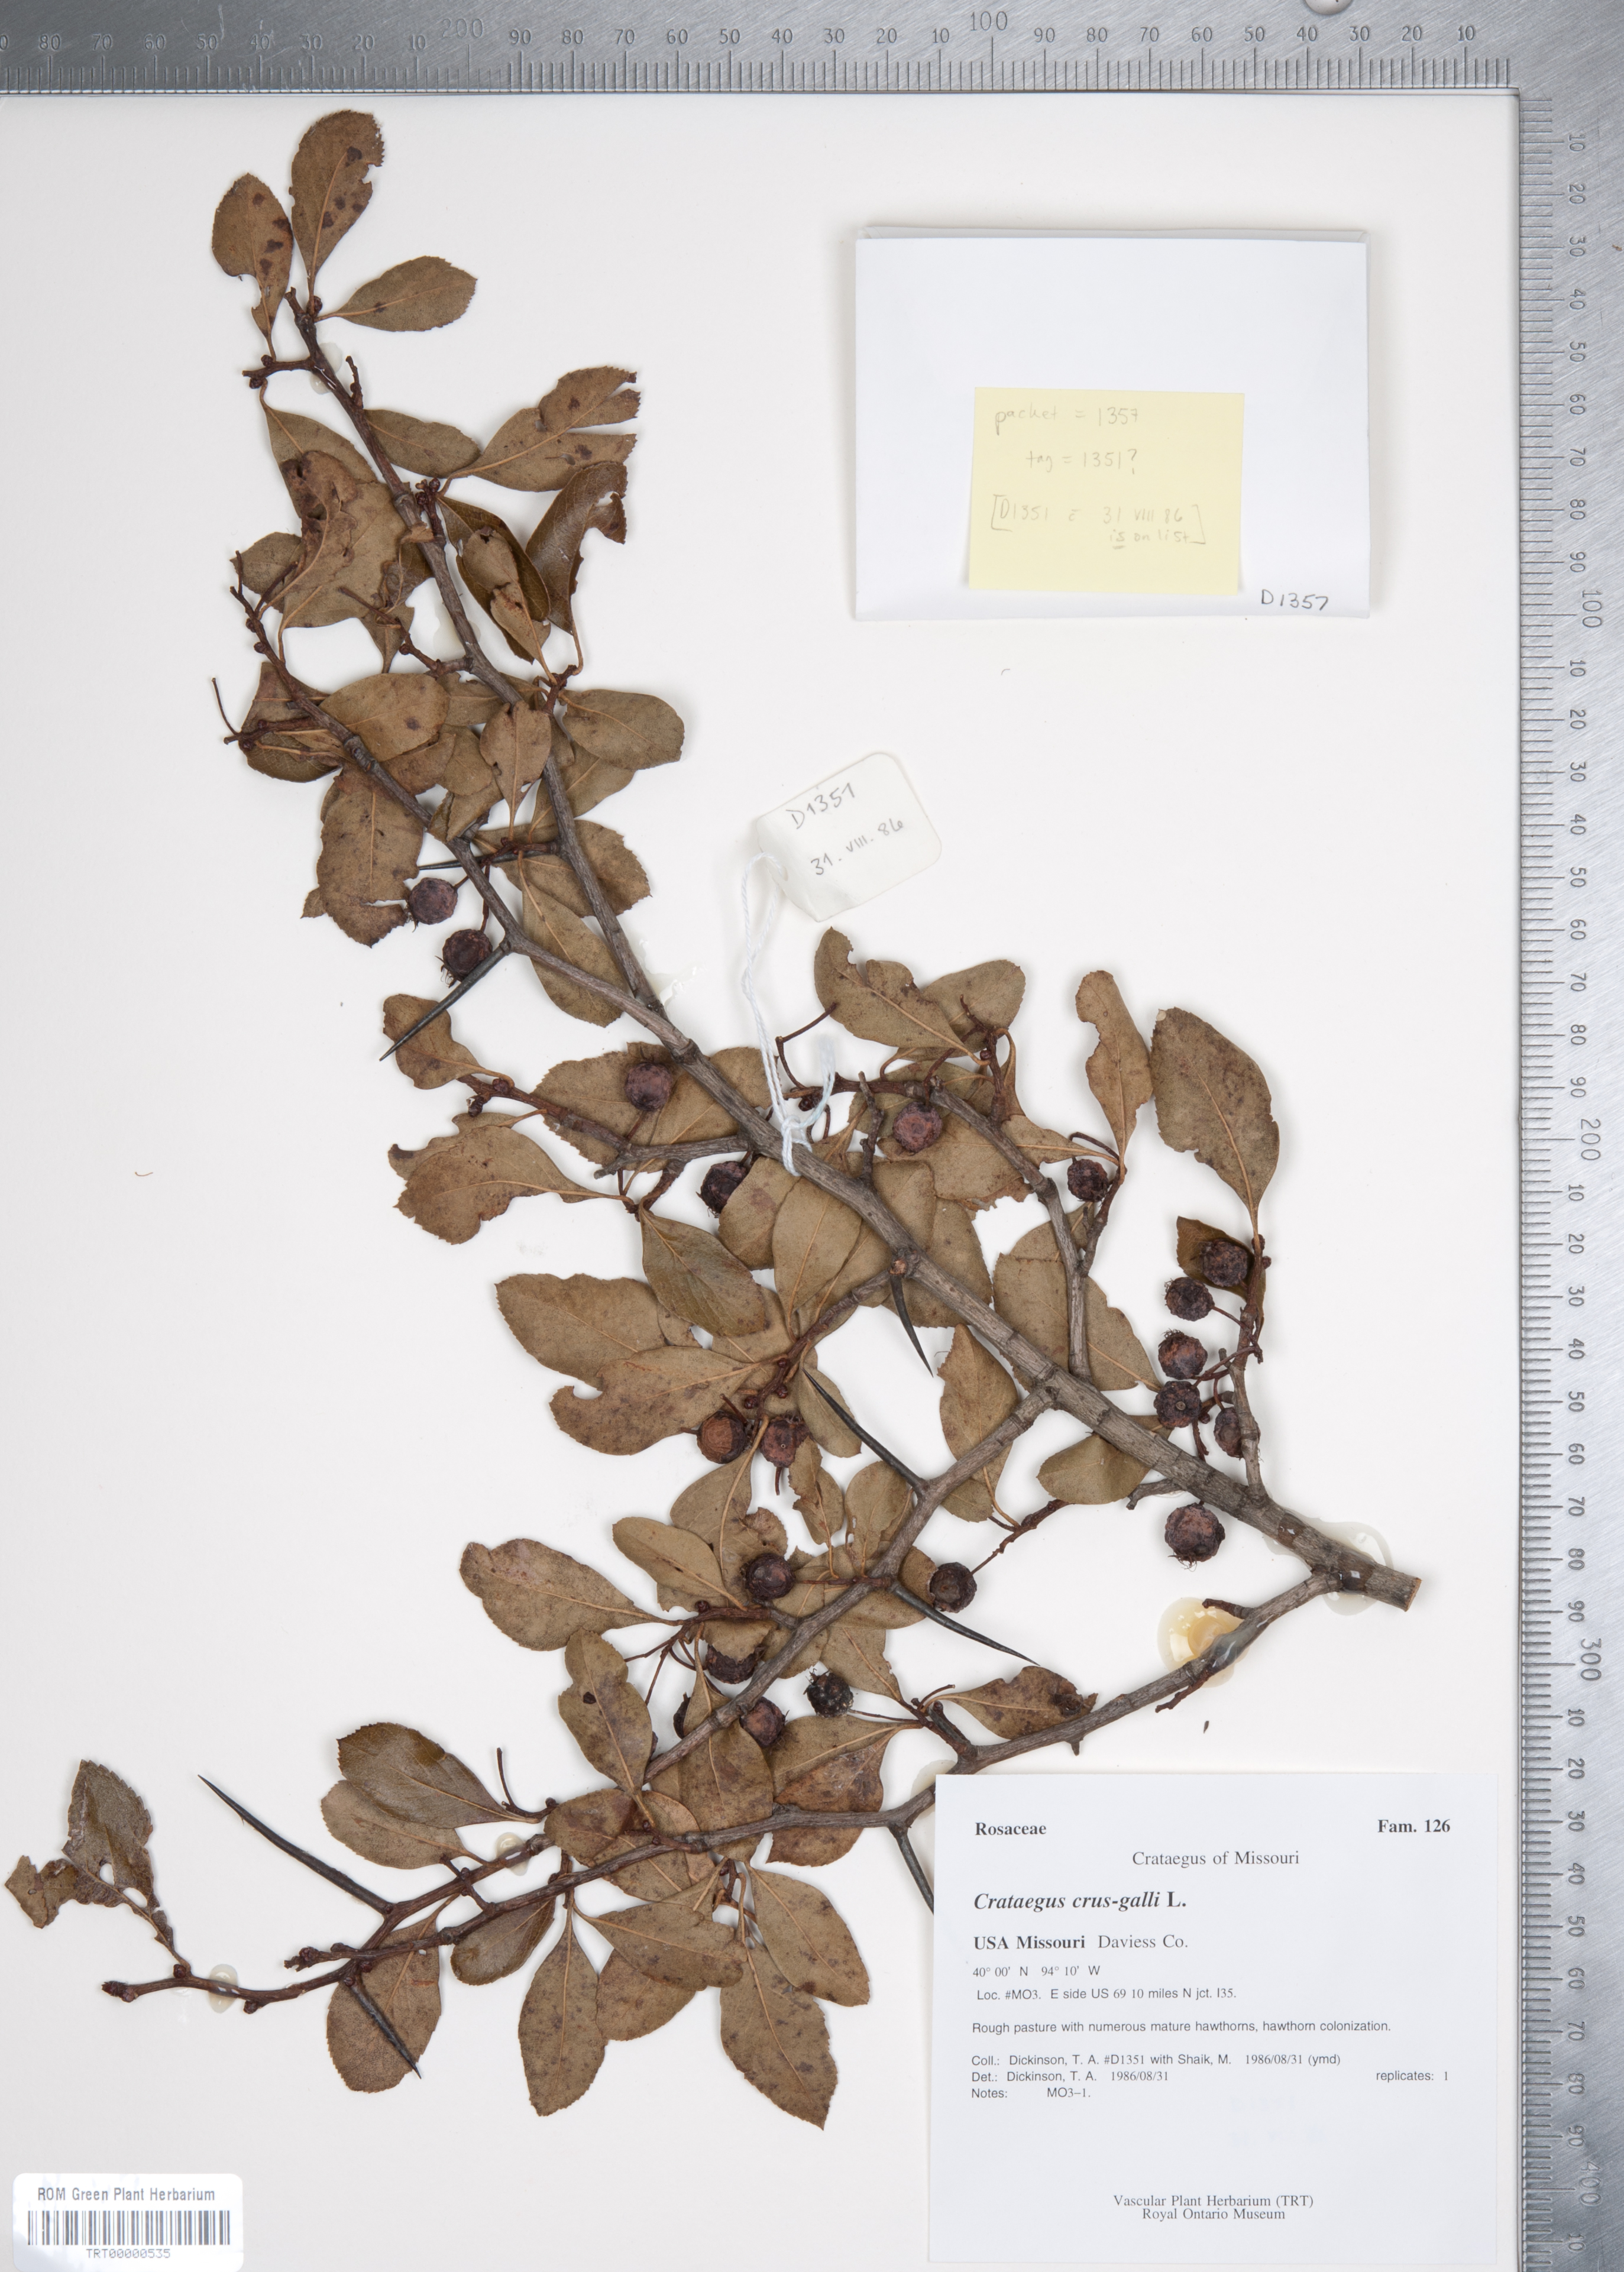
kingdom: Plantae
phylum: Tracheophyta
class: Magnoliopsida
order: Rosales
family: Rosaceae
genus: Crataegus
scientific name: Crataegus crus-galli
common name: Cockspurthorn
